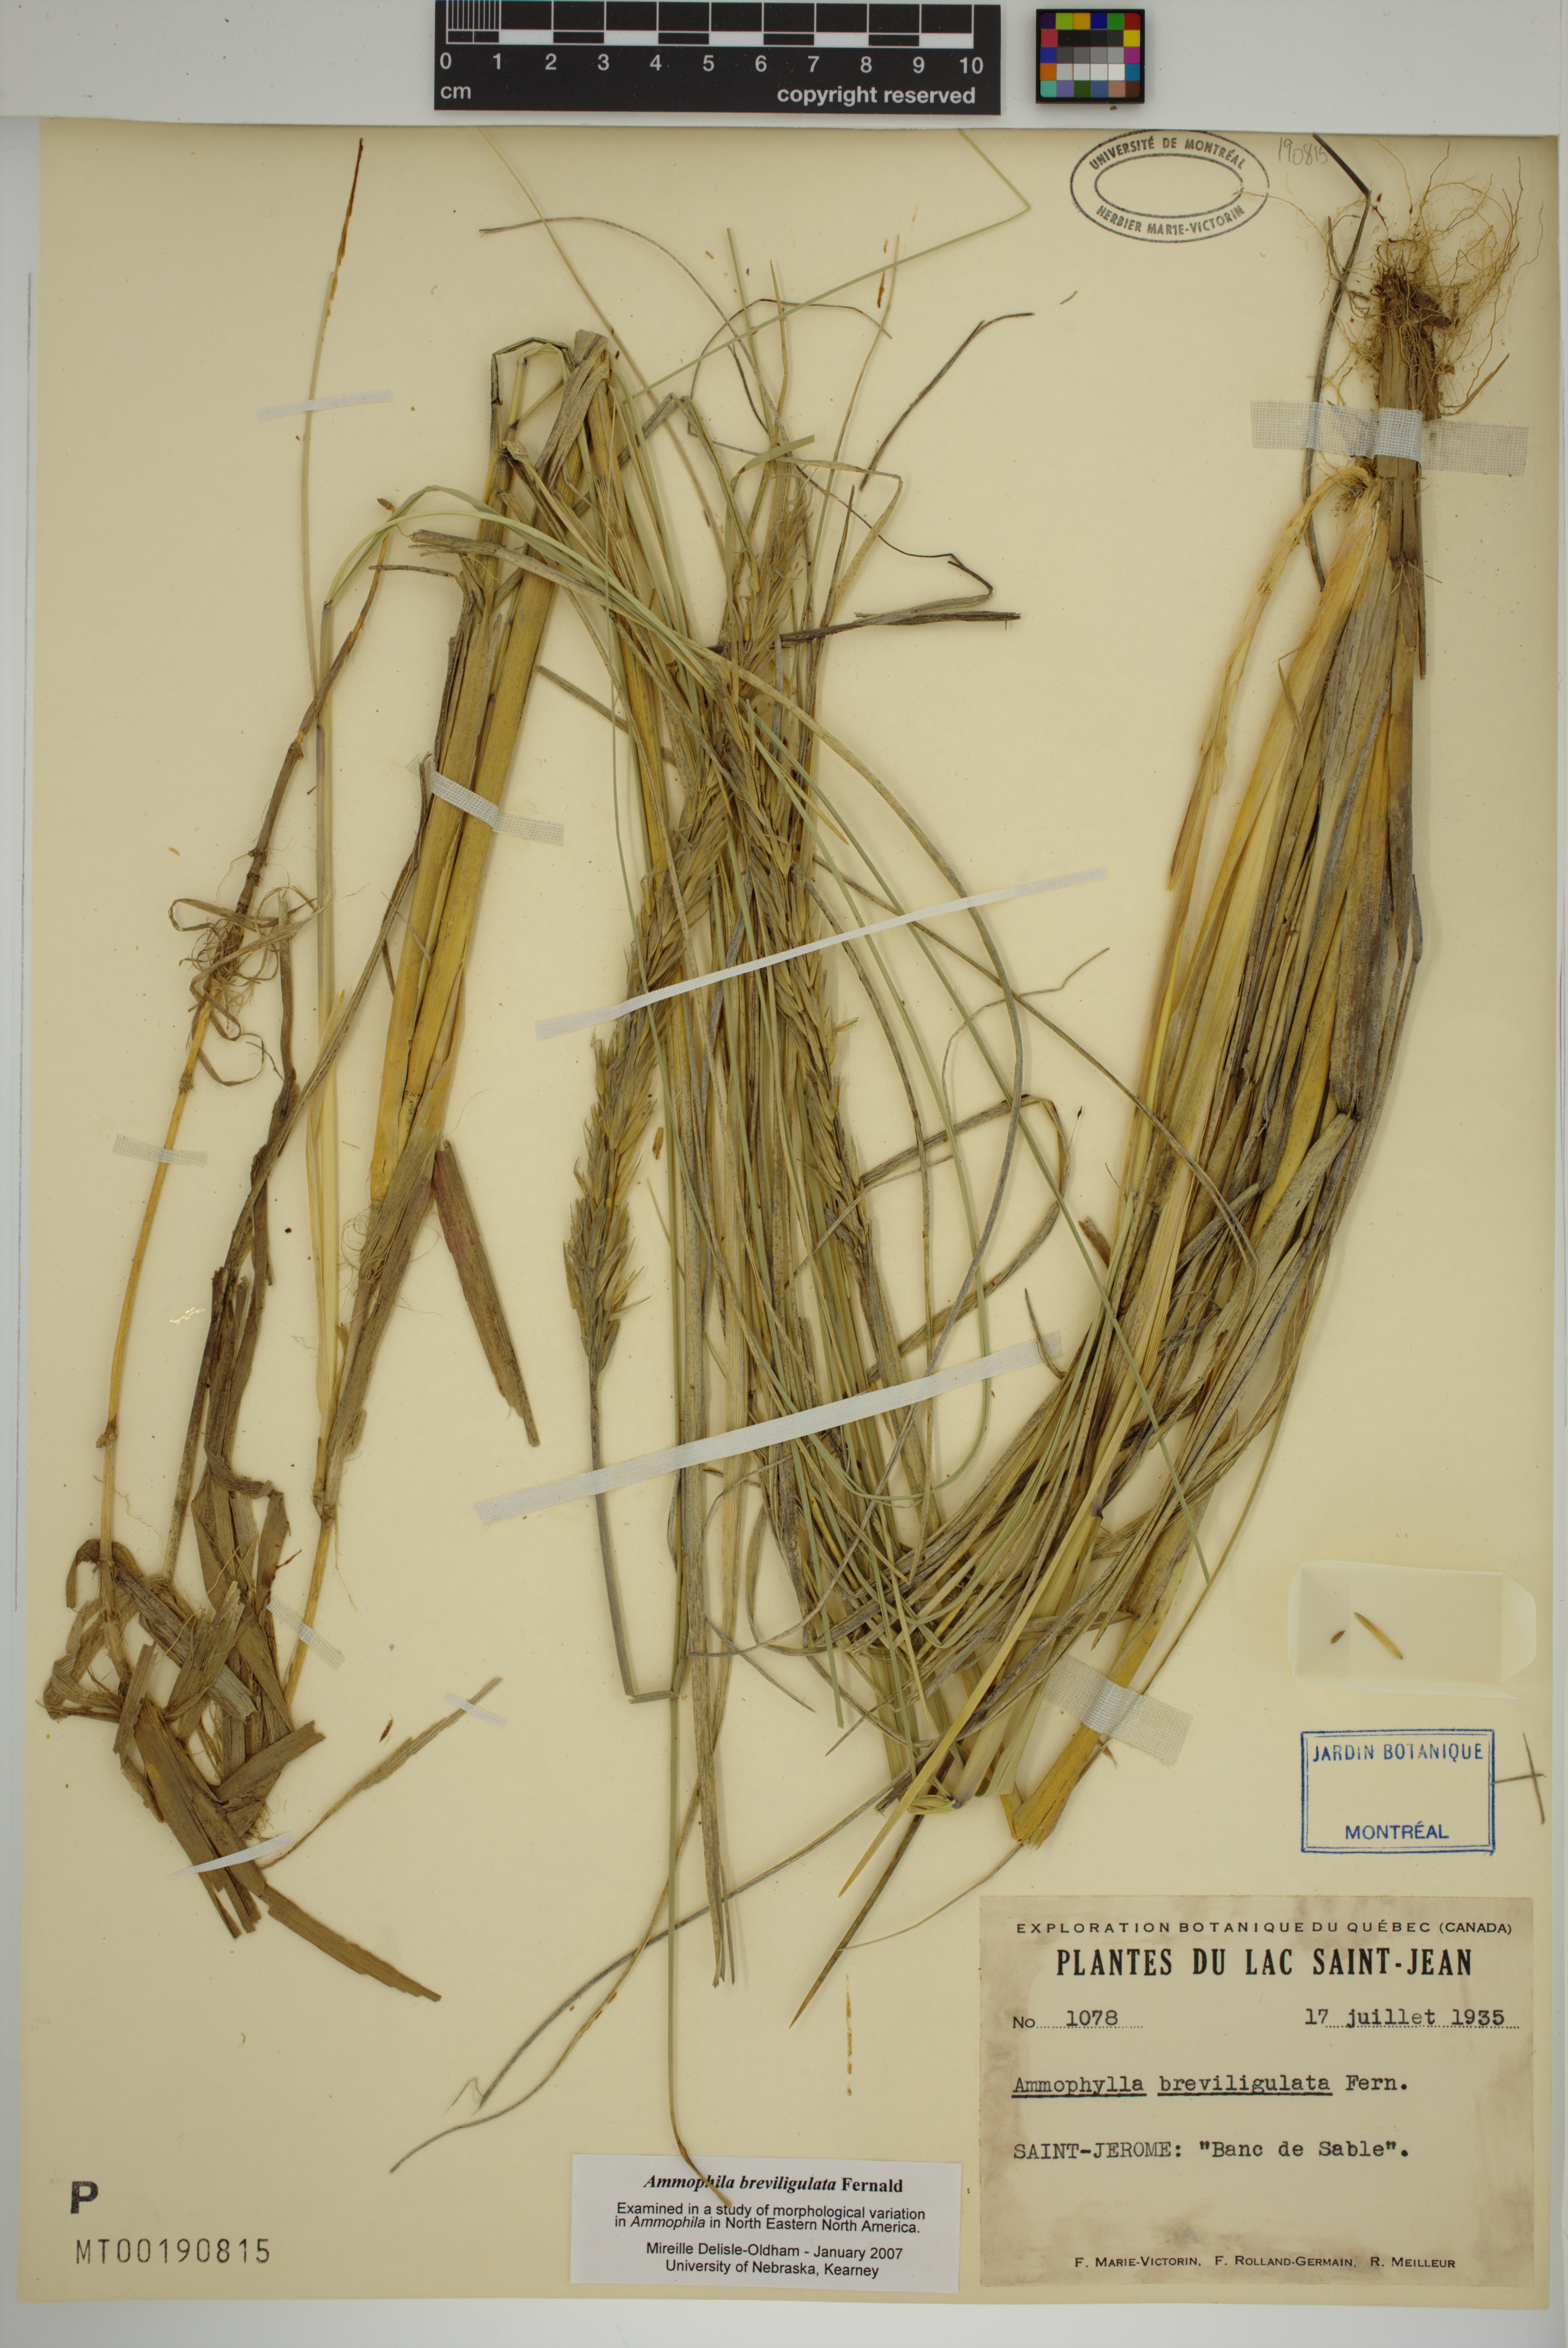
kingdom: Plantae
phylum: Tracheophyta
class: Liliopsida
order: Poales
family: Poaceae
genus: Calamagrostis
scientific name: Calamagrostis breviligulata
